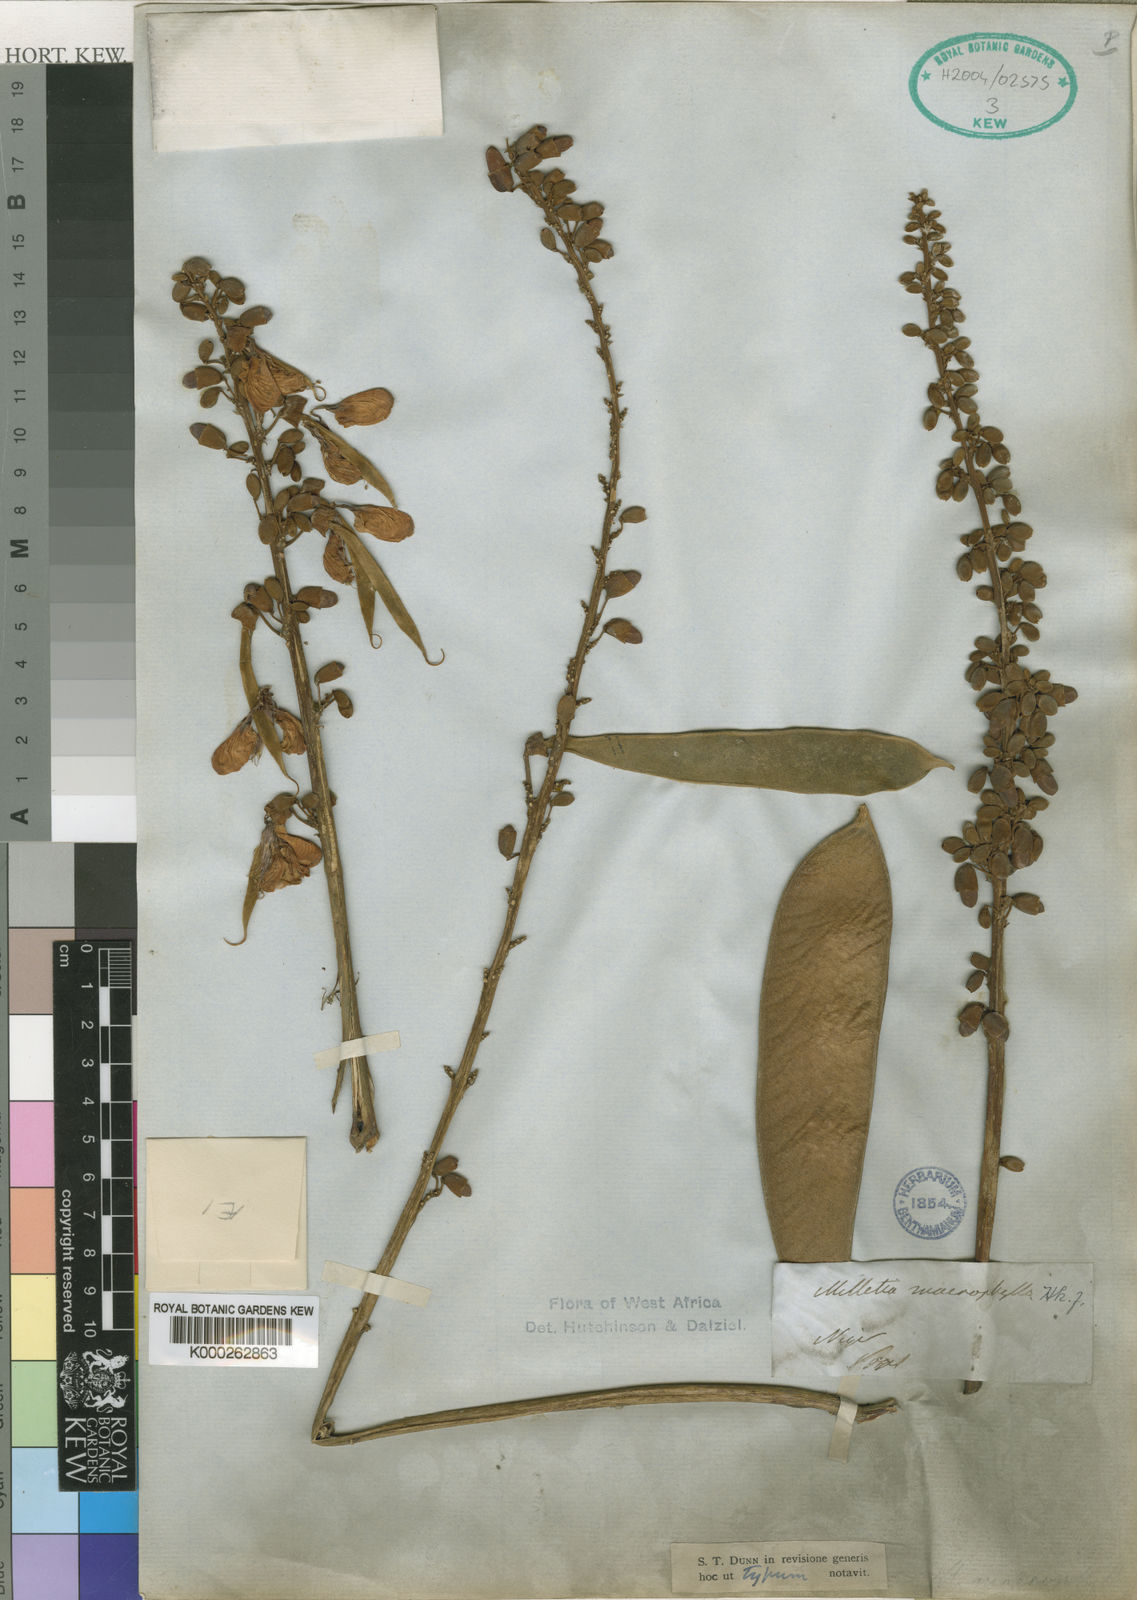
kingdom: Plantae
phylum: Tracheophyta
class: Magnoliopsida
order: Fabales
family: Fabaceae
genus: Millettia
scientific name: Millettia macrophylla
